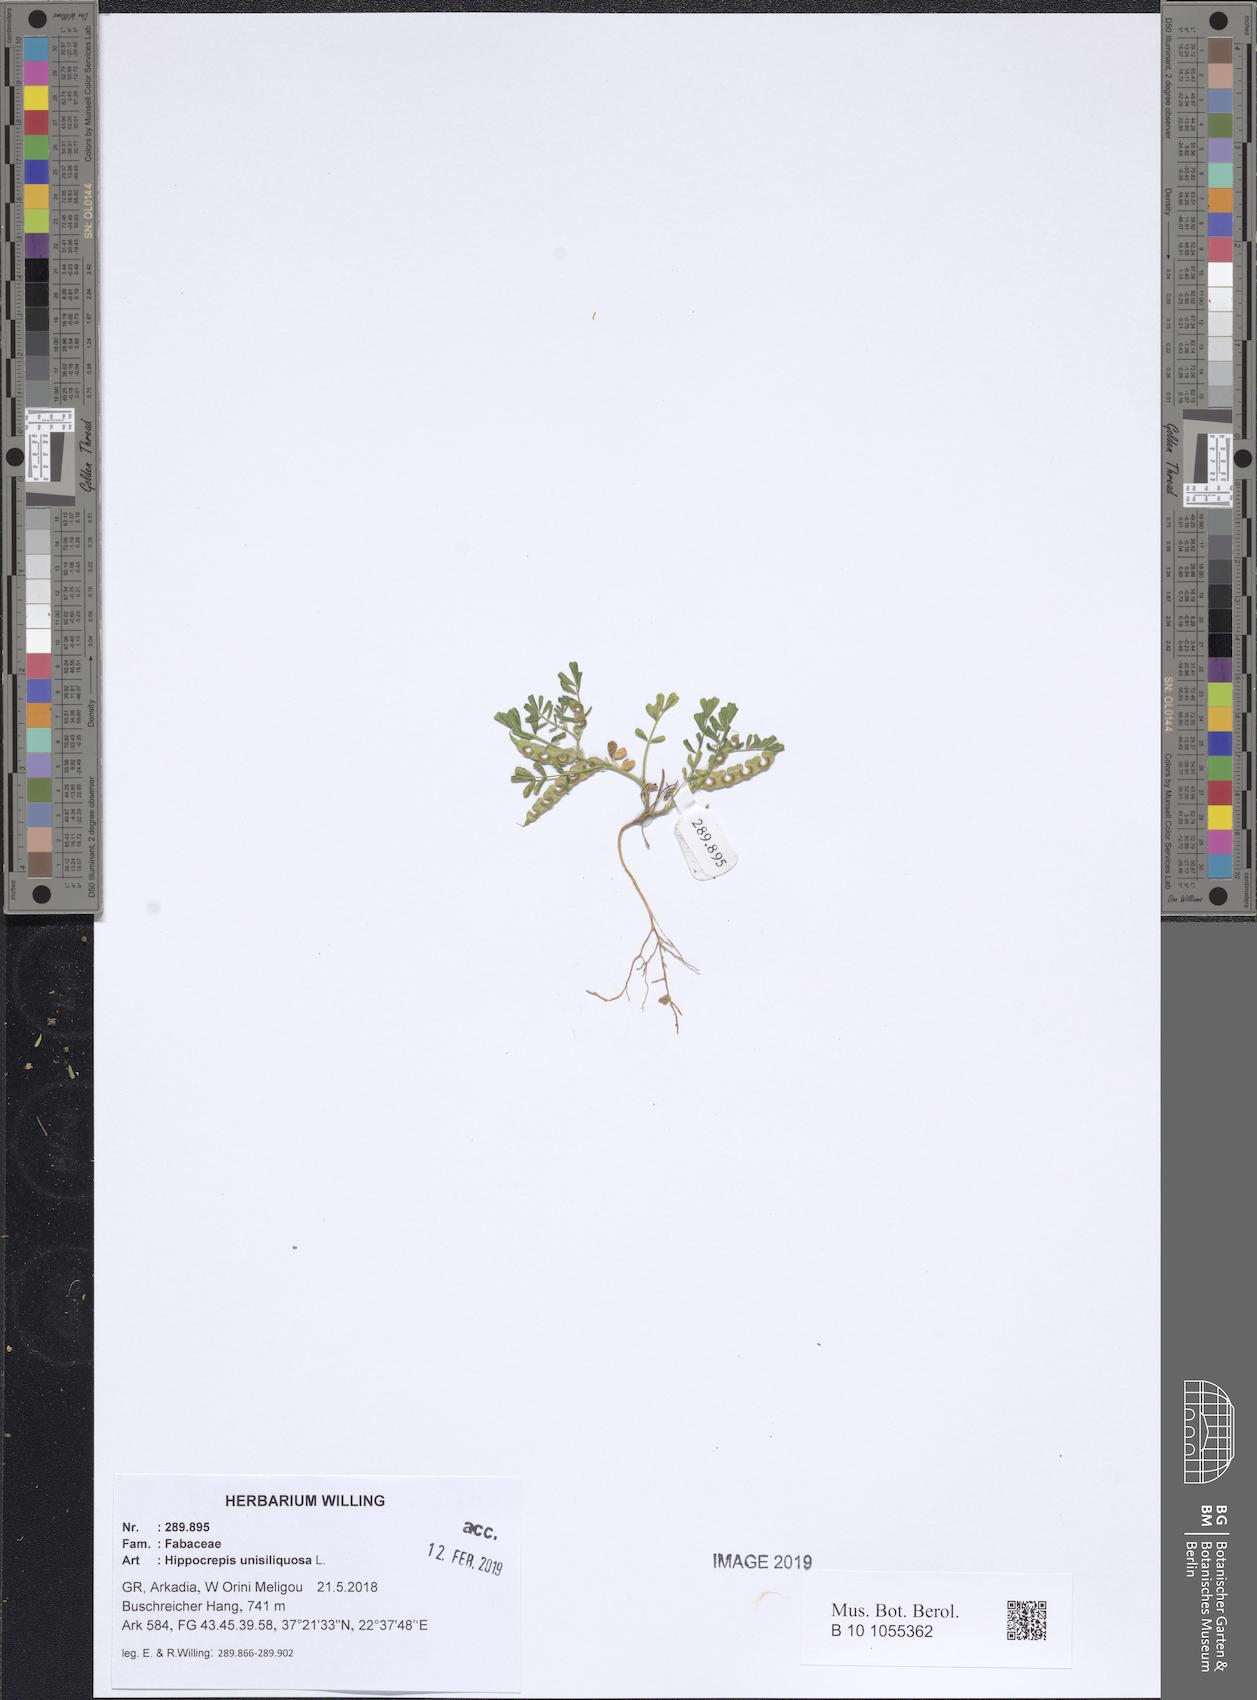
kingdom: Plantae
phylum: Tracheophyta
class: Magnoliopsida
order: Fabales
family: Fabaceae
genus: Hippocrepis
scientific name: Hippocrepis unisiliquosa
